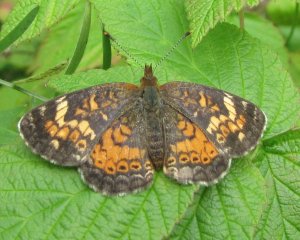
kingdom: Animalia
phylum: Arthropoda
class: Insecta
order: Lepidoptera
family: Nymphalidae
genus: Phyciodes
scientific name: Phyciodes tharos
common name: Northern Crescent
